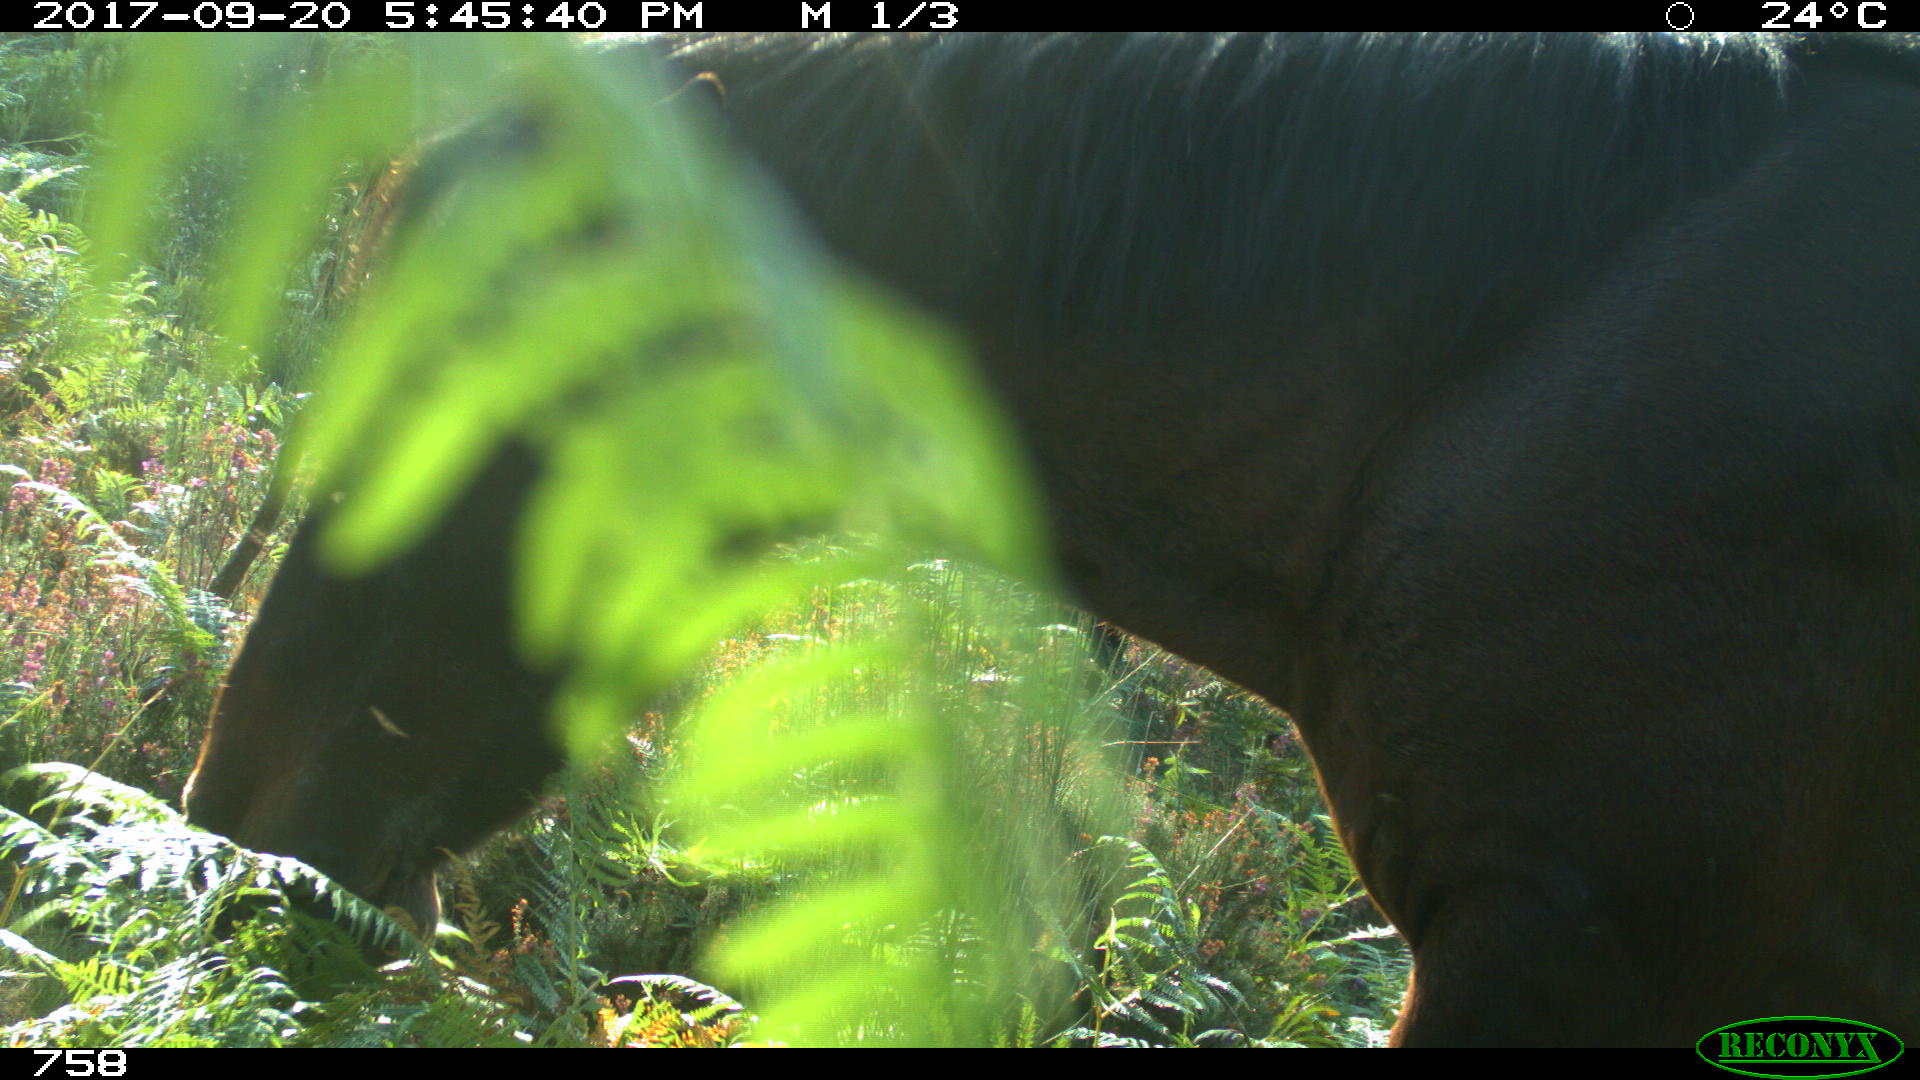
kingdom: Animalia
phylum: Chordata
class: Mammalia
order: Perissodactyla
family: Equidae
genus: Equus
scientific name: Equus caballus
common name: Horse
